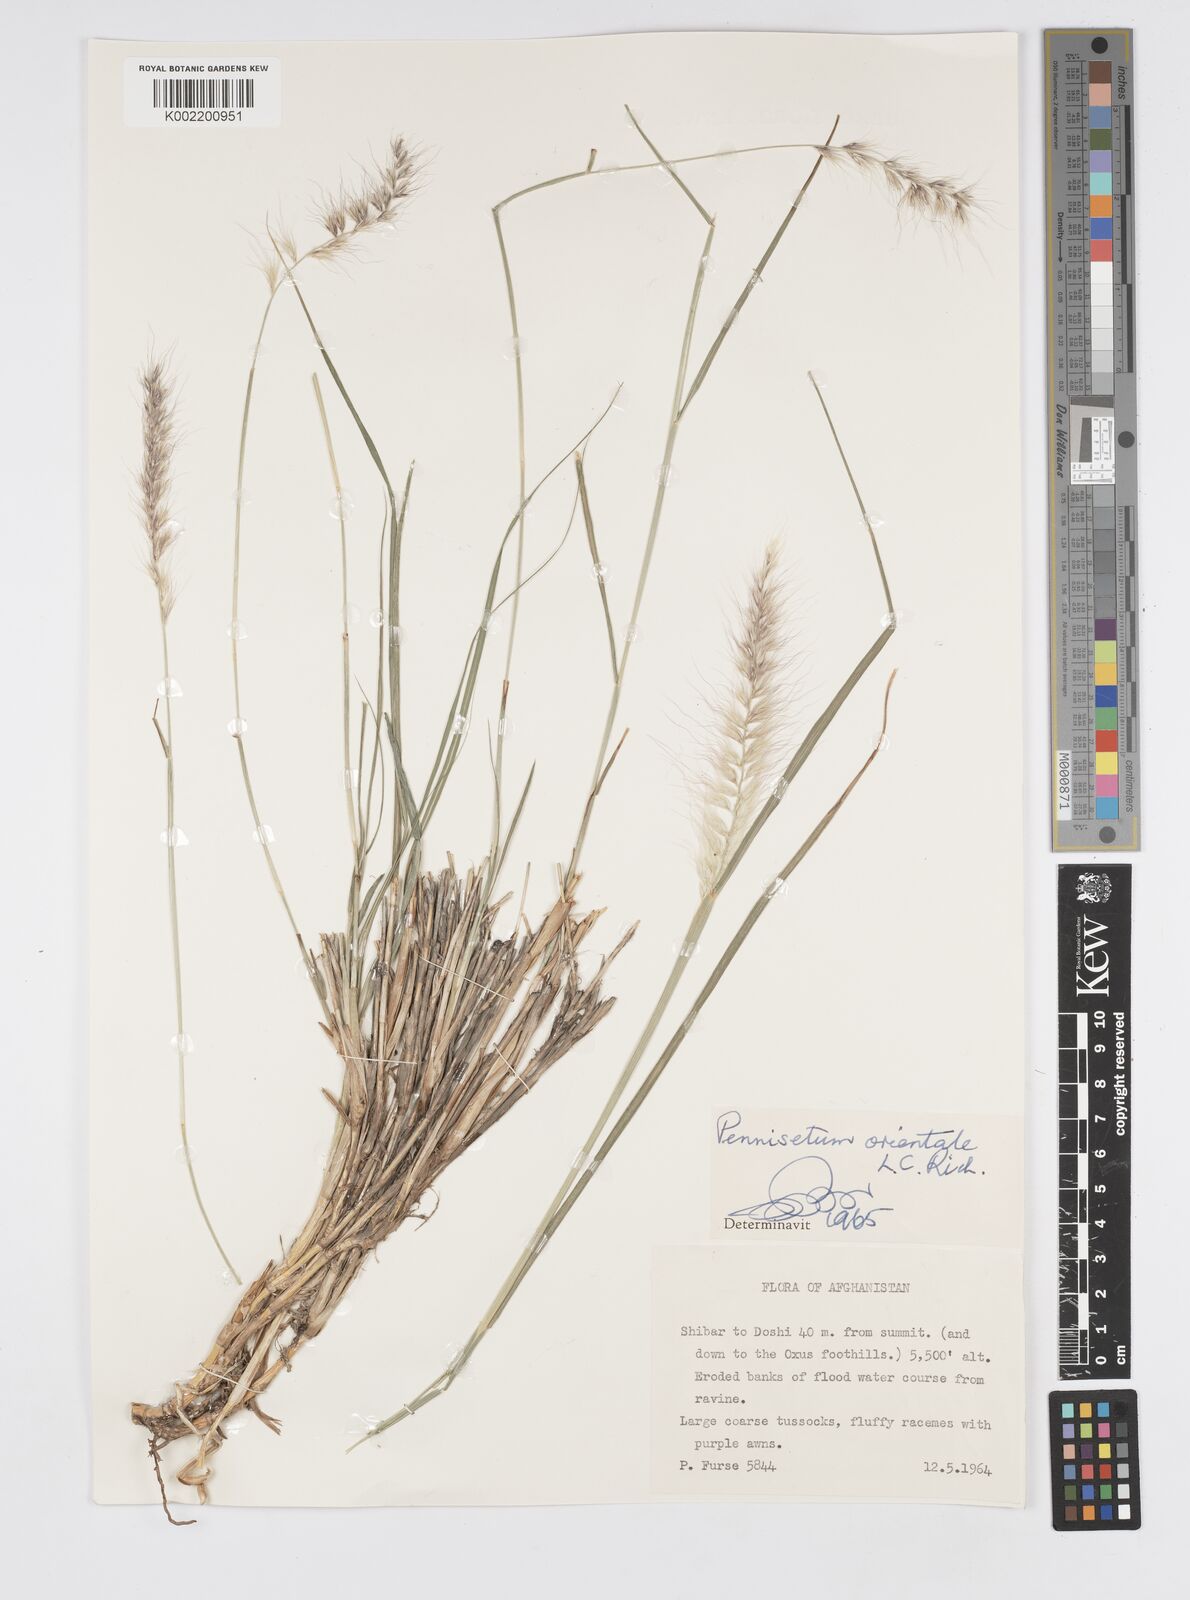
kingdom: Plantae
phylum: Tracheophyta
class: Liliopsida
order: Poales
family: Poaceae
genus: Cenchrus
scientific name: Cenchrus orientalis
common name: Oriental fountain grass
